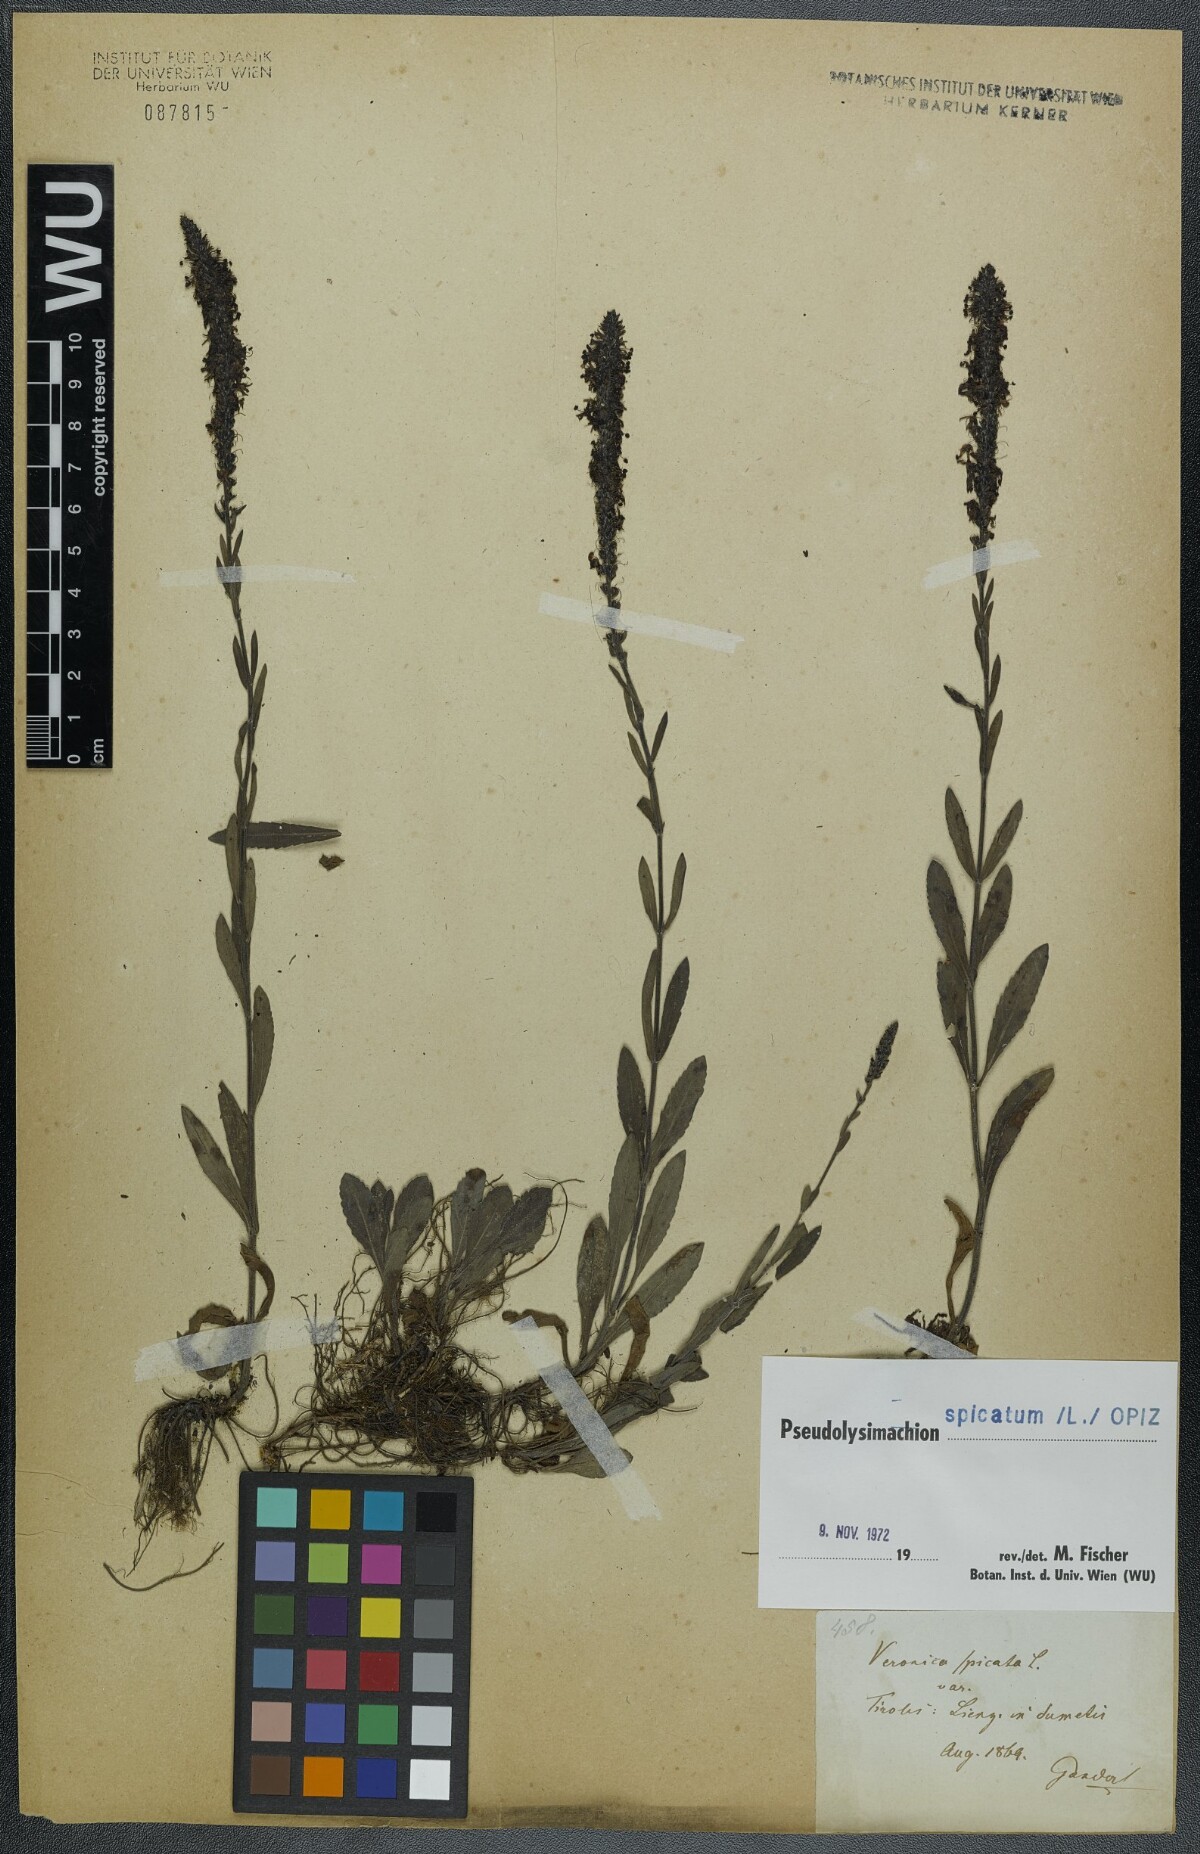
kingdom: Plantae
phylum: Tracheophyta
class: Magnoliopsida
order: Lamiales
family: Plantaginaceae
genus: Veronica
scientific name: Veronica spicata
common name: Spiked speedwell
